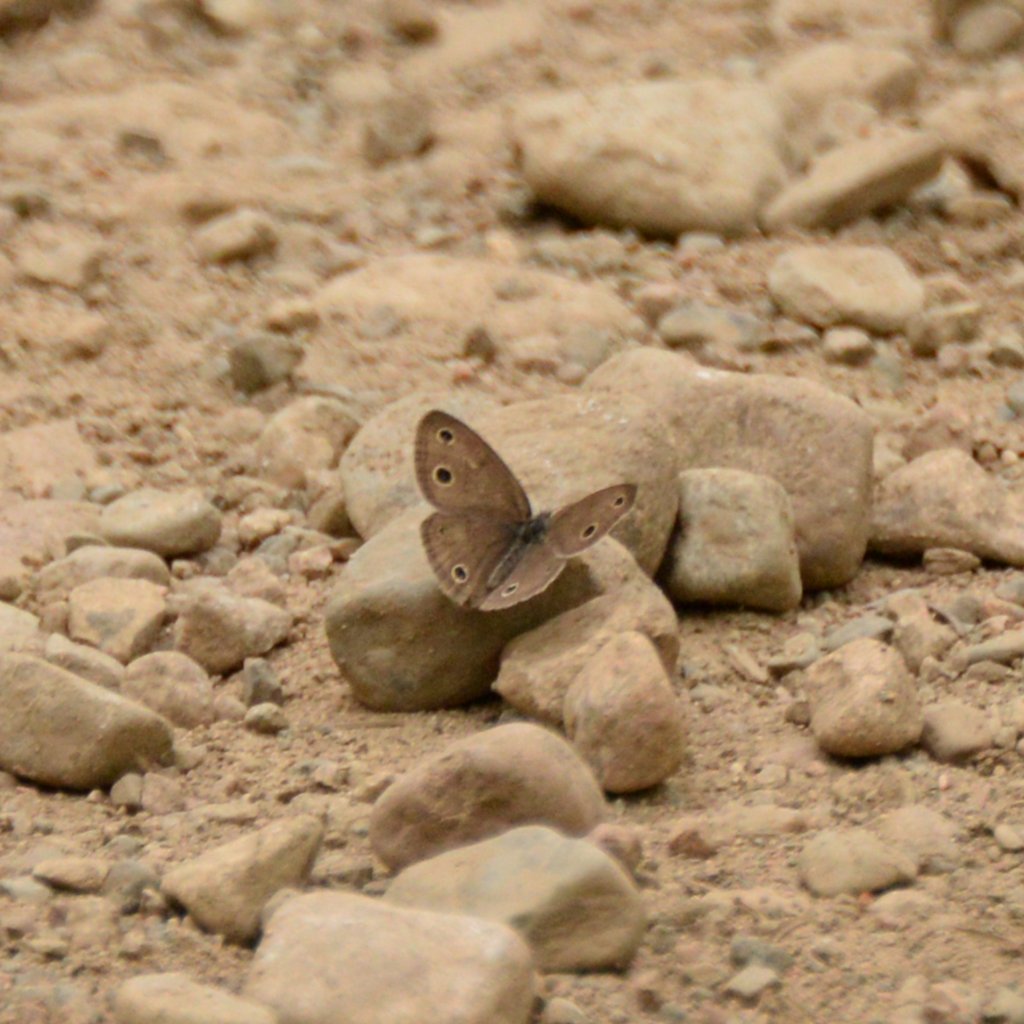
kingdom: Animalia
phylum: Arthropoda
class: Insecta
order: Lepidoptera
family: Nymphalidae
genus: Euptychia
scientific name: Euptychia cymela
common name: Little Wood Satyr
